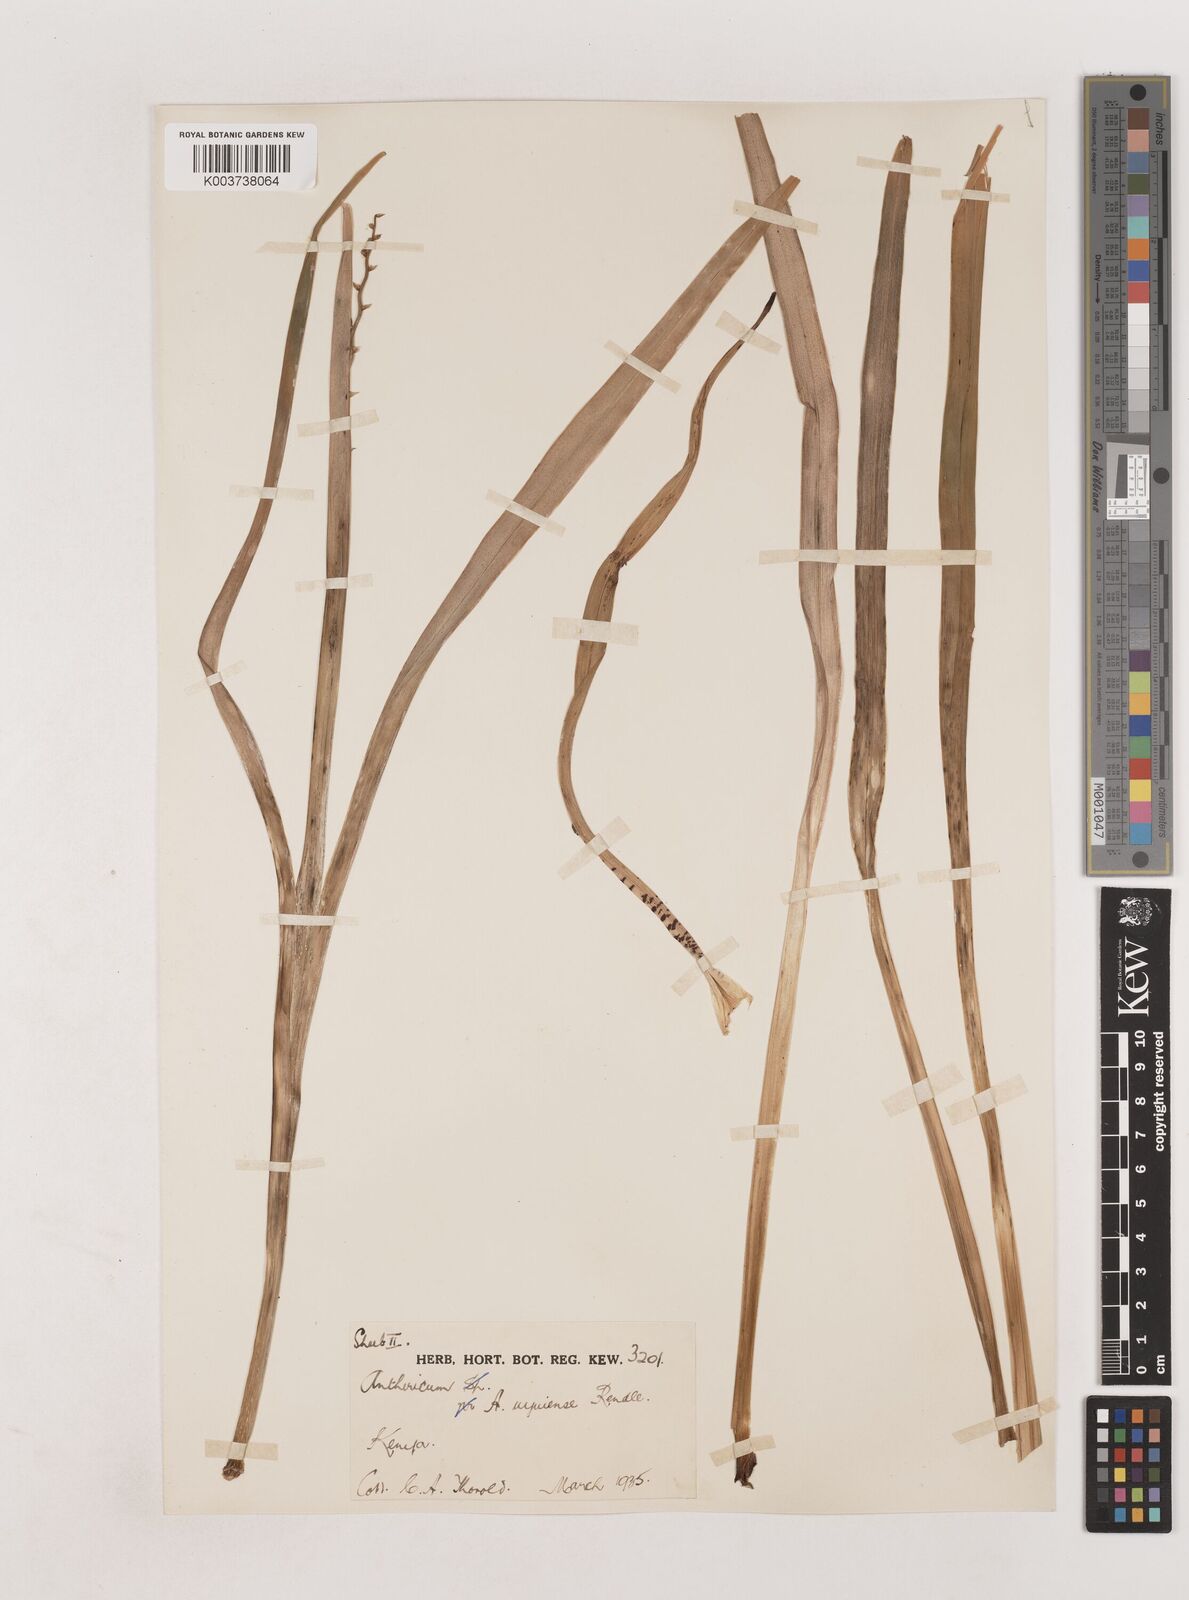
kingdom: Plantae
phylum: Tracheophyta
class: Liliopsida
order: Asparagales
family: Asparagaceae
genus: Chlorophytum
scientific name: Chlorophytum cameronii
